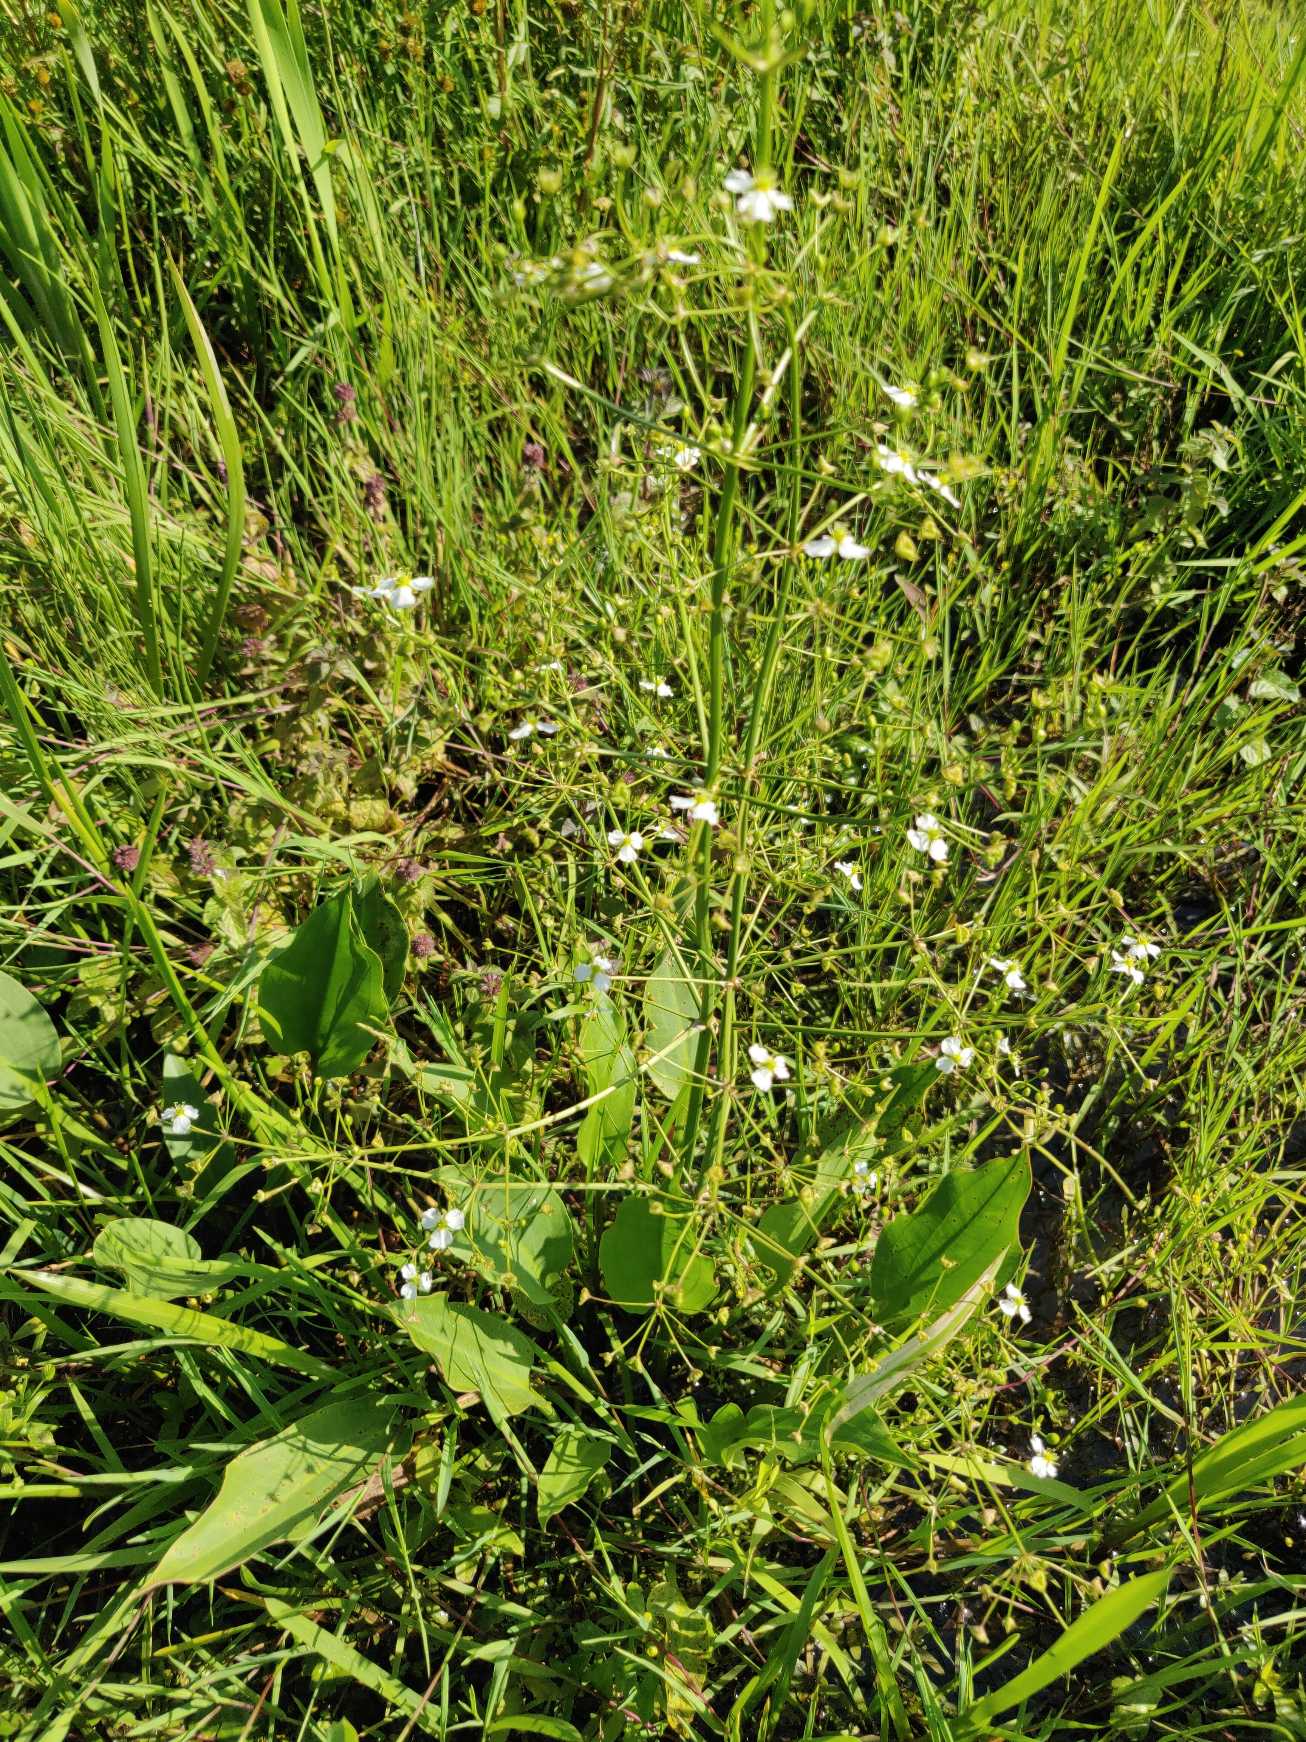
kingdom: Plantae
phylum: Tracheophyta
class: Liliopsida
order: Alismatales
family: Alismataceae
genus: Alisma
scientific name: Alisma plantago-aquatica
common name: Vejbred-skeblad
